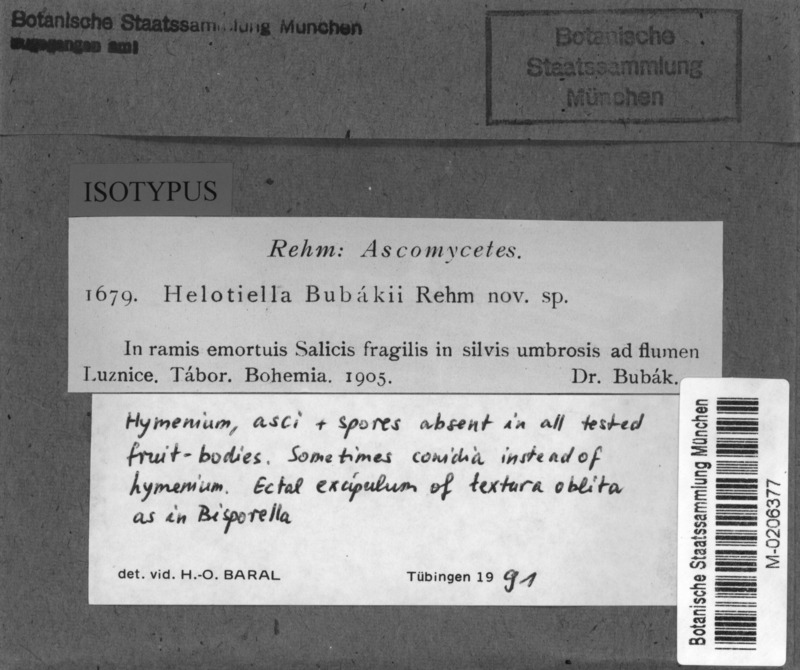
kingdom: Fungi
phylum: Ascomycota
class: Leotiomycetes
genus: Helotiella
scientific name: Helotiella bubakii
